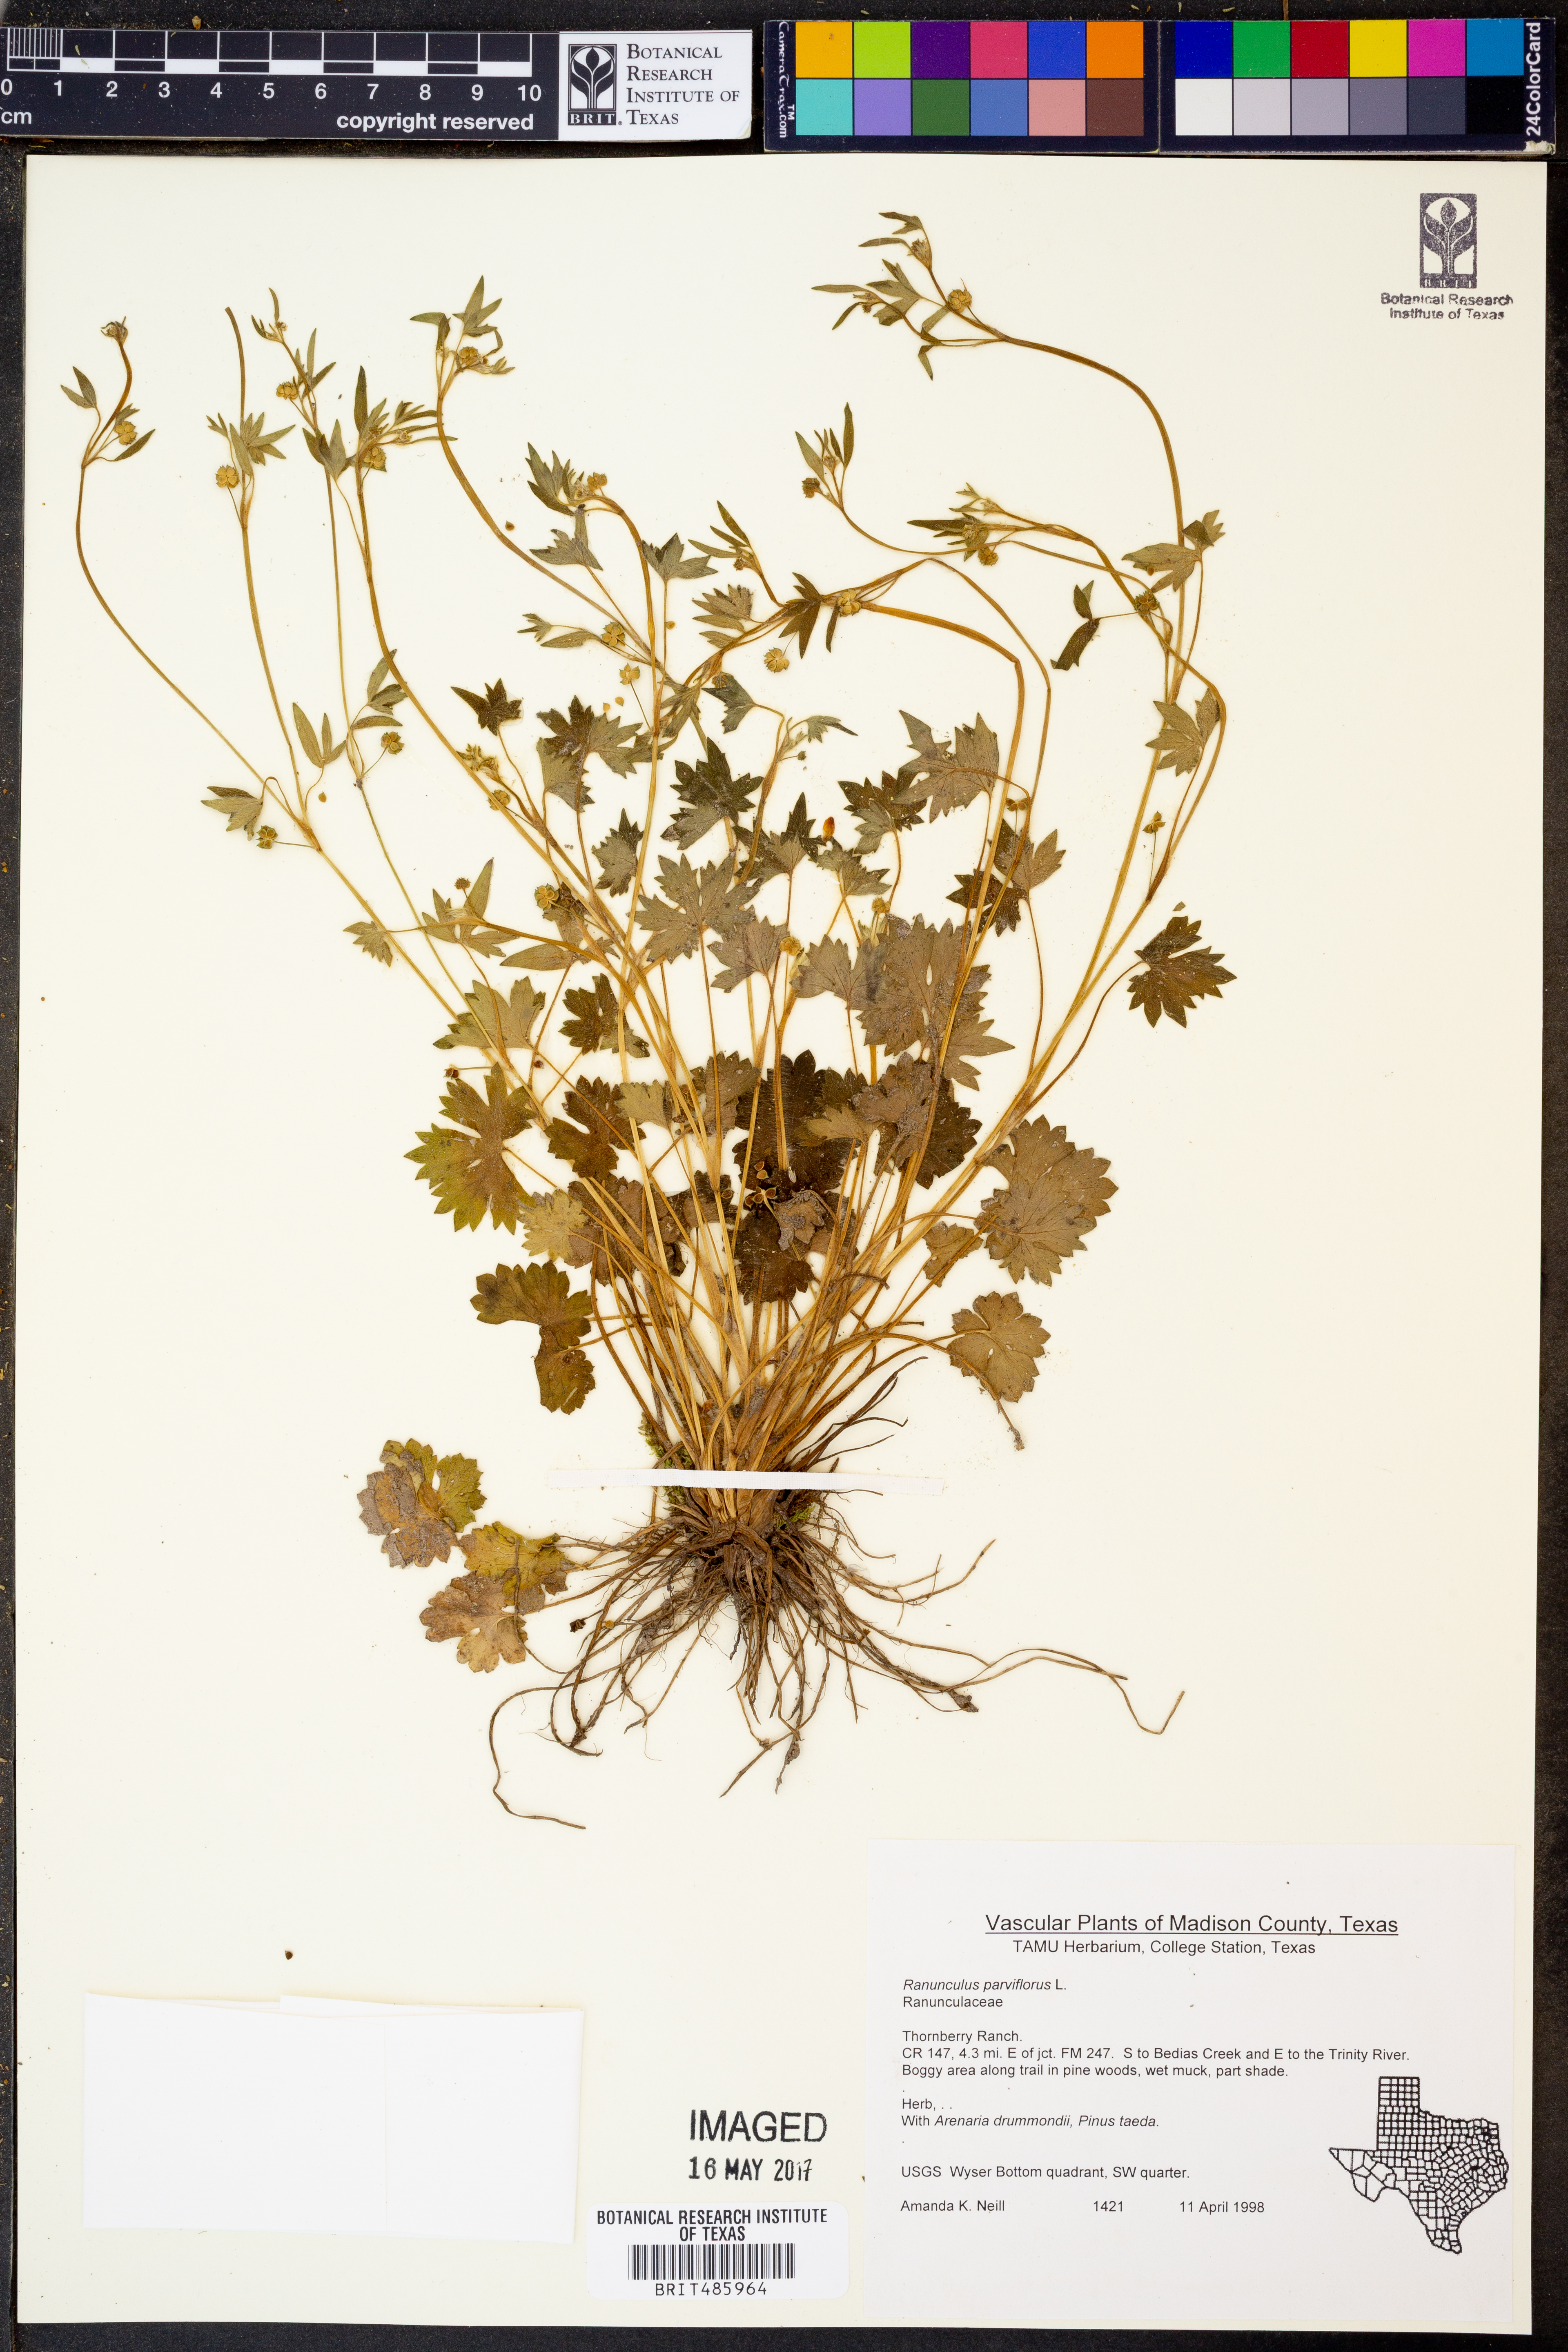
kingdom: Plantae
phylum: Tracheophyta
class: Magnoliopsida
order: Ranunculales
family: Ranunculaceae
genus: Ranunculus
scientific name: Ranunculus parviflorus
